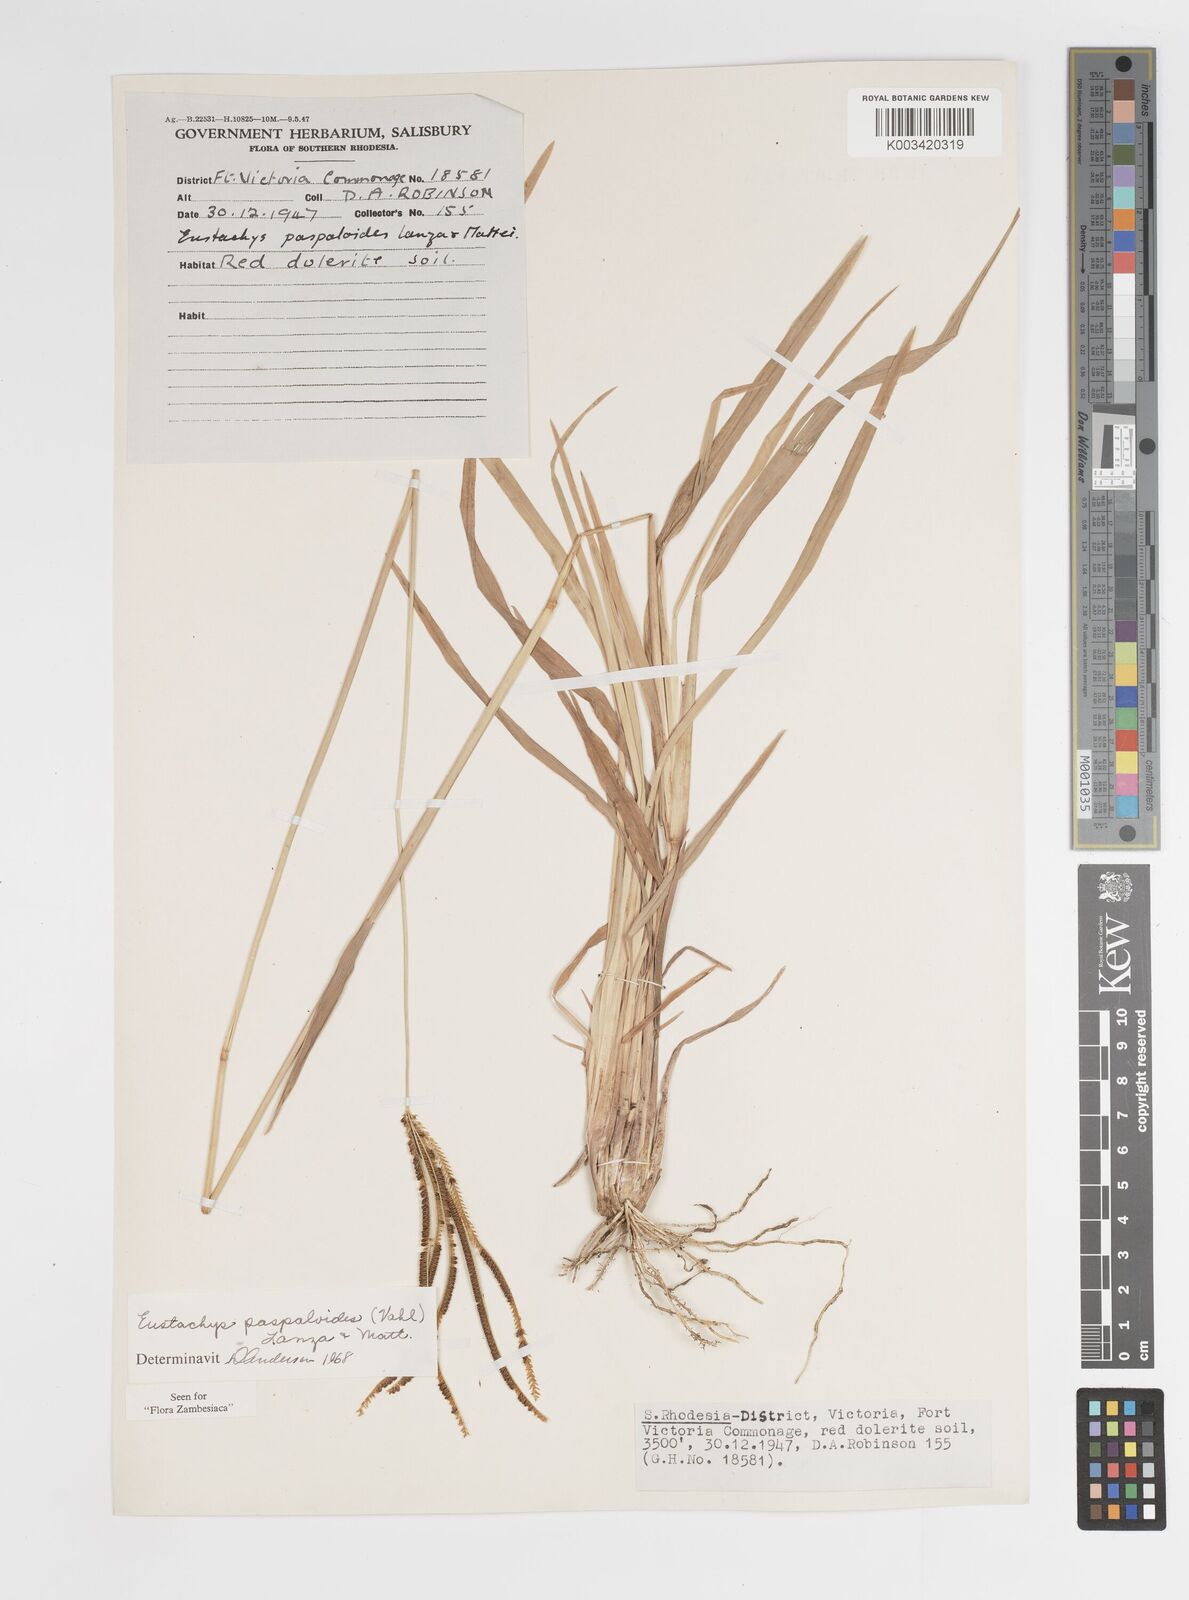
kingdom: Plantae
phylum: Tracheophyta
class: Liliopsida
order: Poales
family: Poaceae
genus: Eustachys
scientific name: Eustachys paspaloides
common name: Caribbean fingergrass
